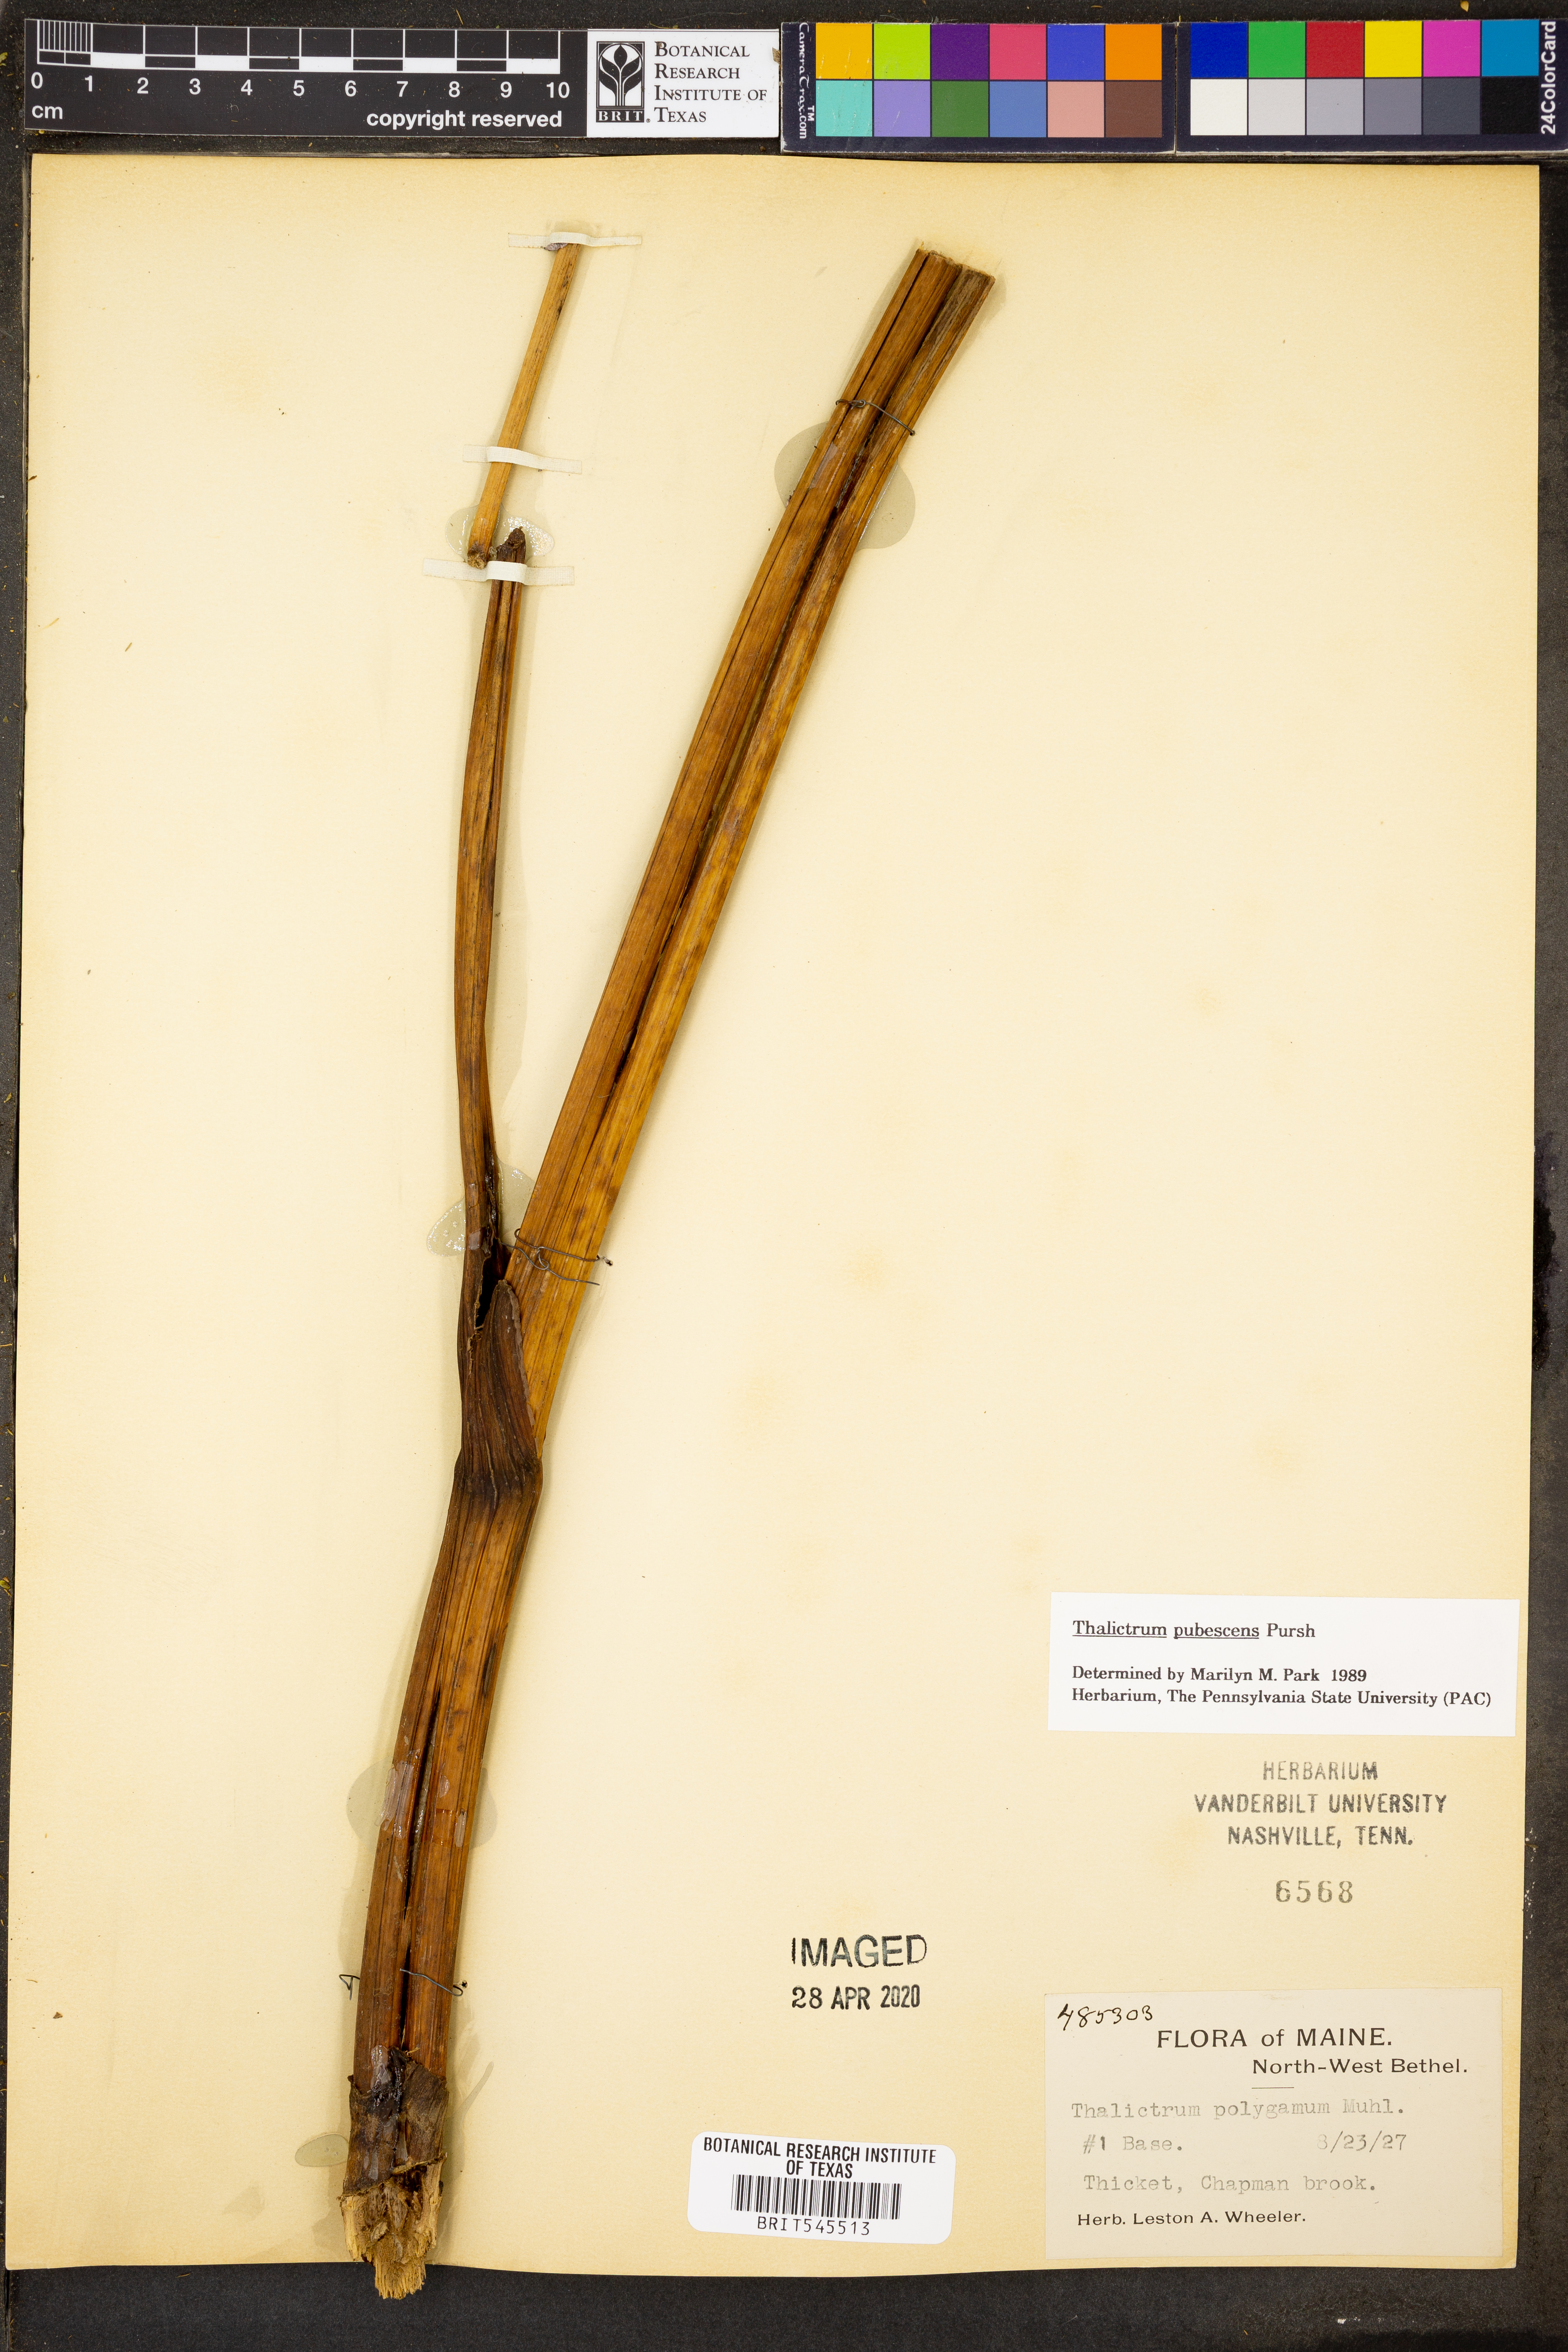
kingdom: Plantae
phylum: Tracheophyta
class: Magnoliopsida
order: Ranunculales
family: Ranunculaceae
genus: Thalictrum
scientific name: Thalictrum pubescens
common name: King-of-the-meadow
